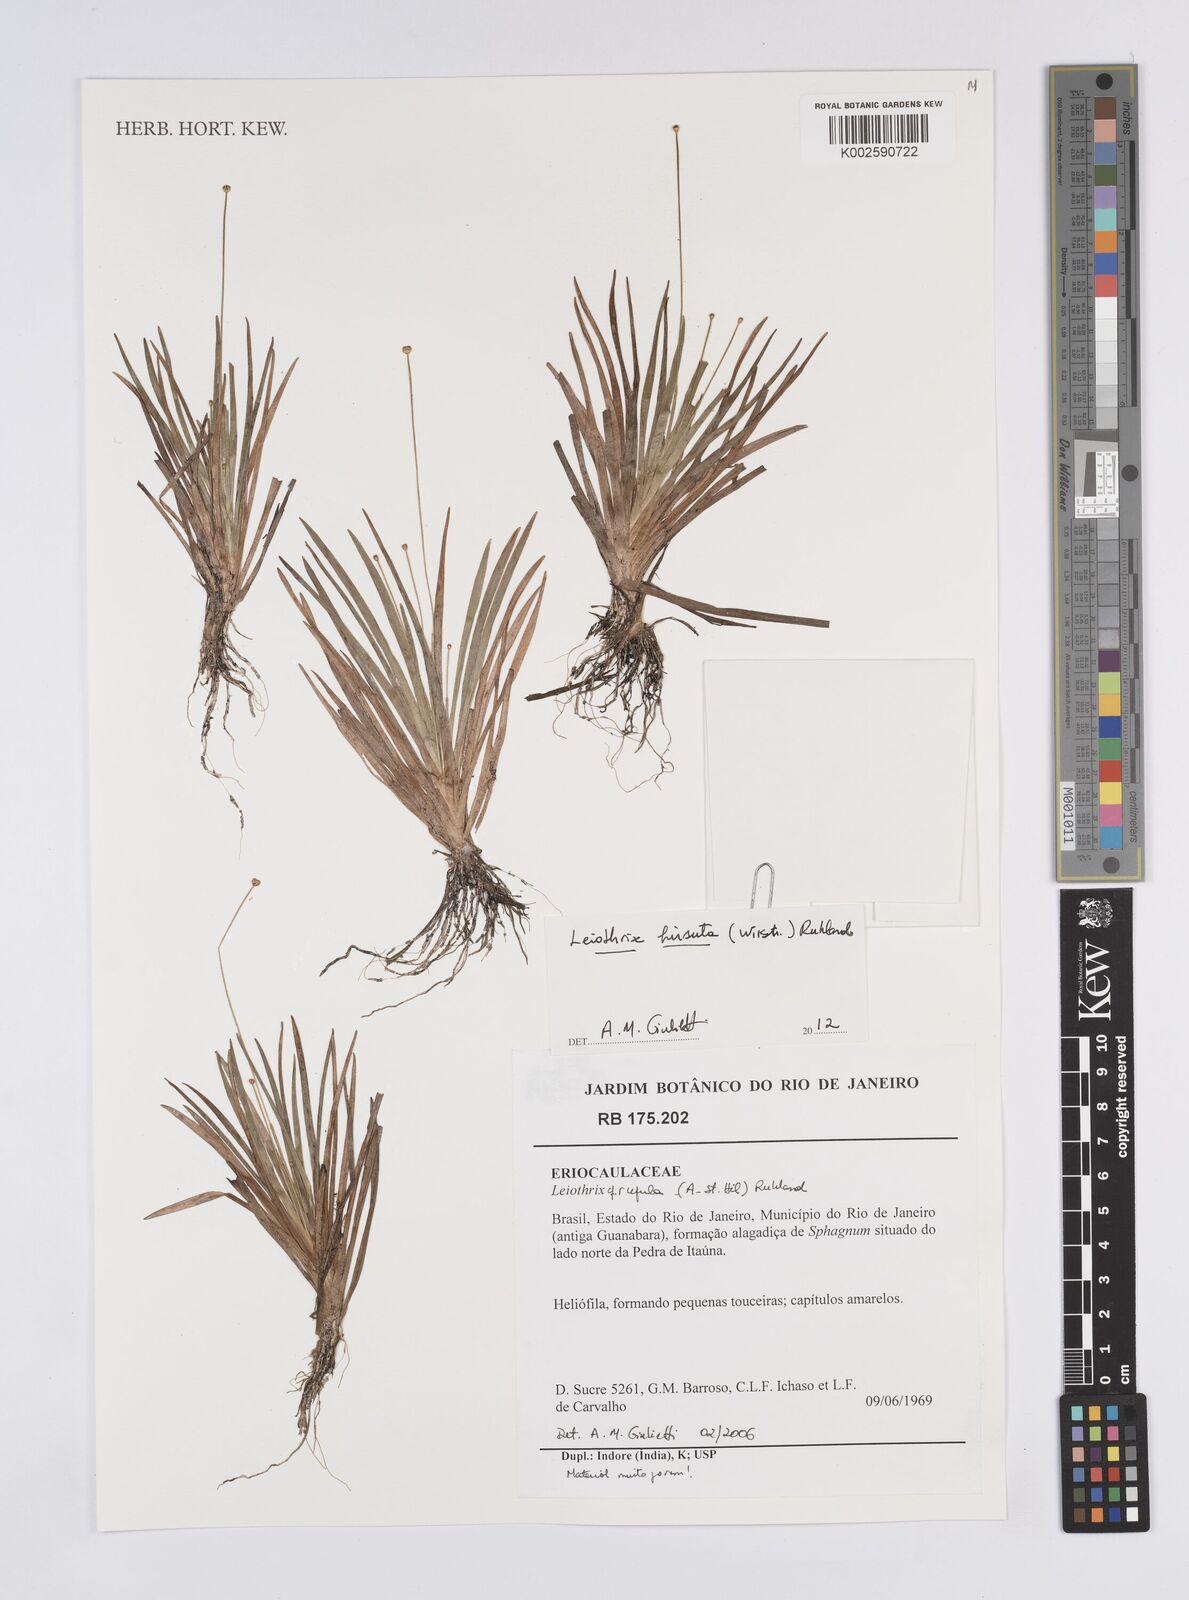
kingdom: Plantae
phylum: Tracheophyta
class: Liliopsida
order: Poales
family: Eriocaulaceae
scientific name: Eriocaulaceae
